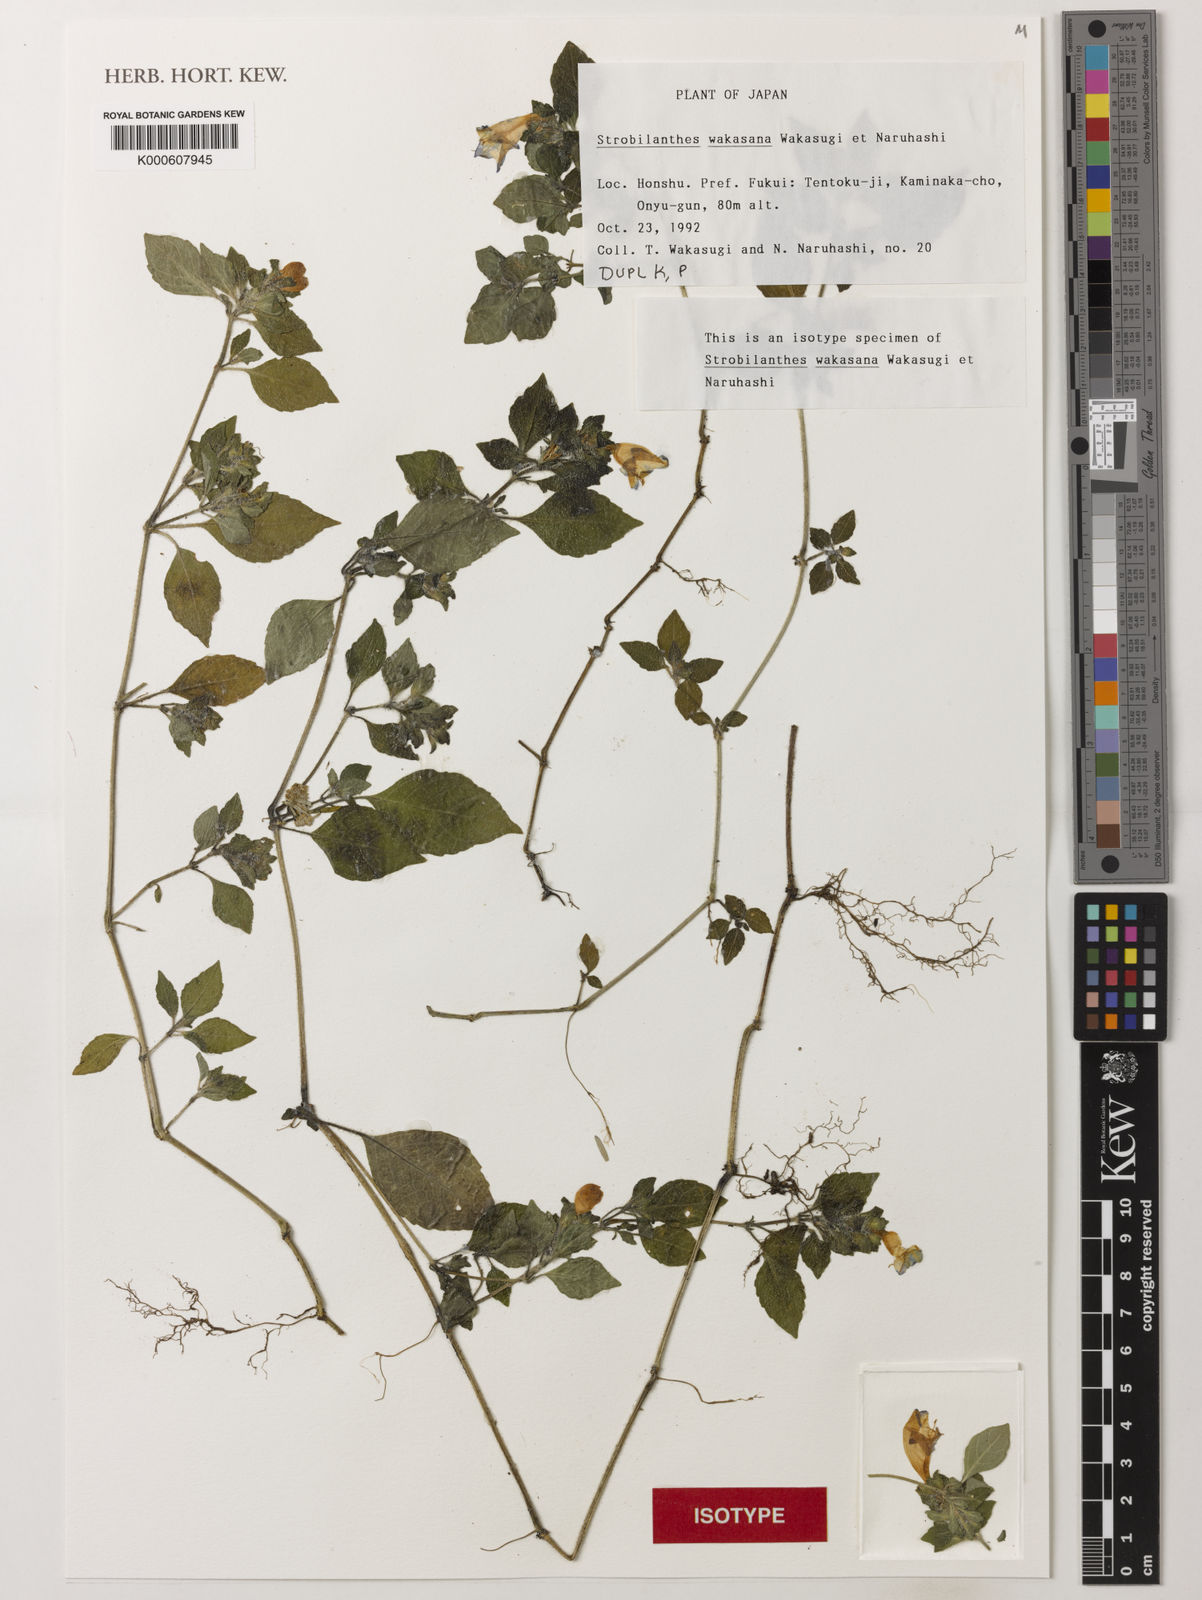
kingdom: Plantae
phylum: Tracheophyta
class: Magnoliopsida
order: Lamiales
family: Acanthaceae
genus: Strobilanthes
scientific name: Strobilanthes wakasana
